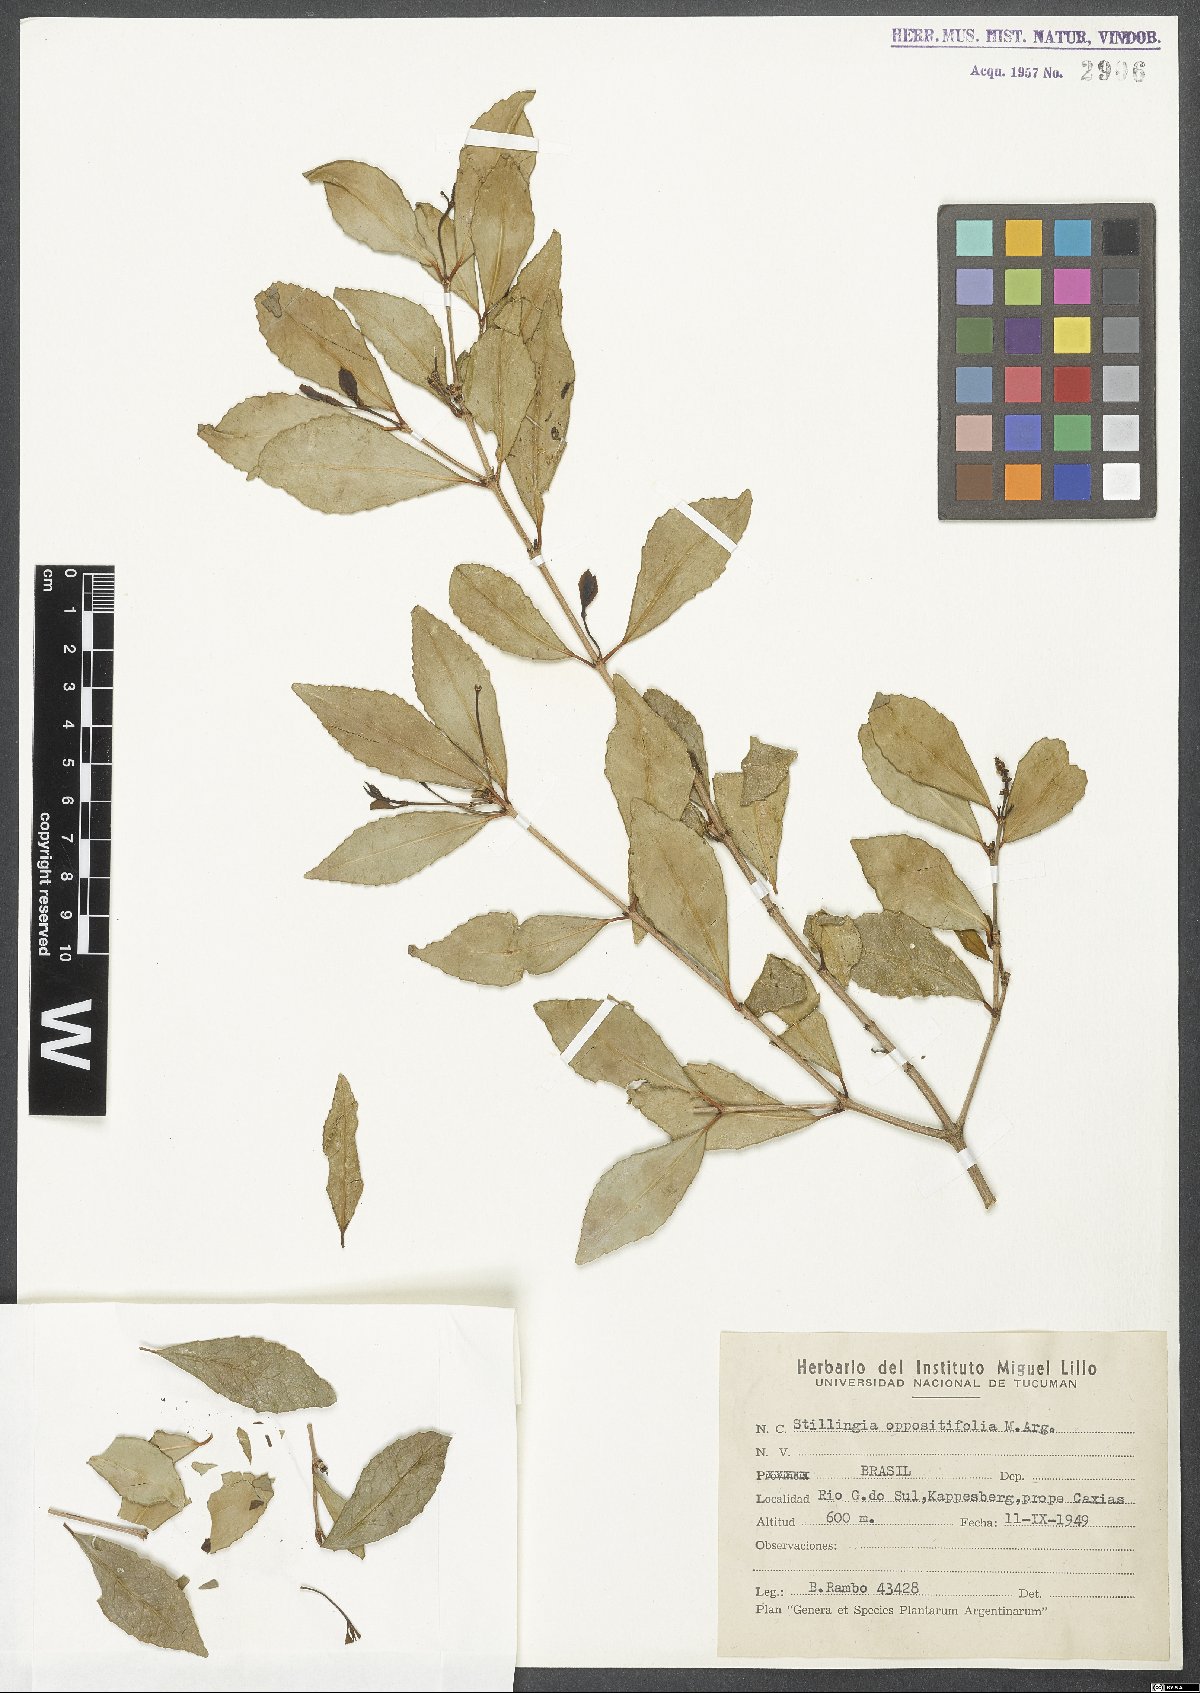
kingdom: Plantae
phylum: Tracheophyta
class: Magnoliopsida
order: Malpighiales
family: Euphorbiaceae
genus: Stillingia
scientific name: Stillingia oppositifolia
